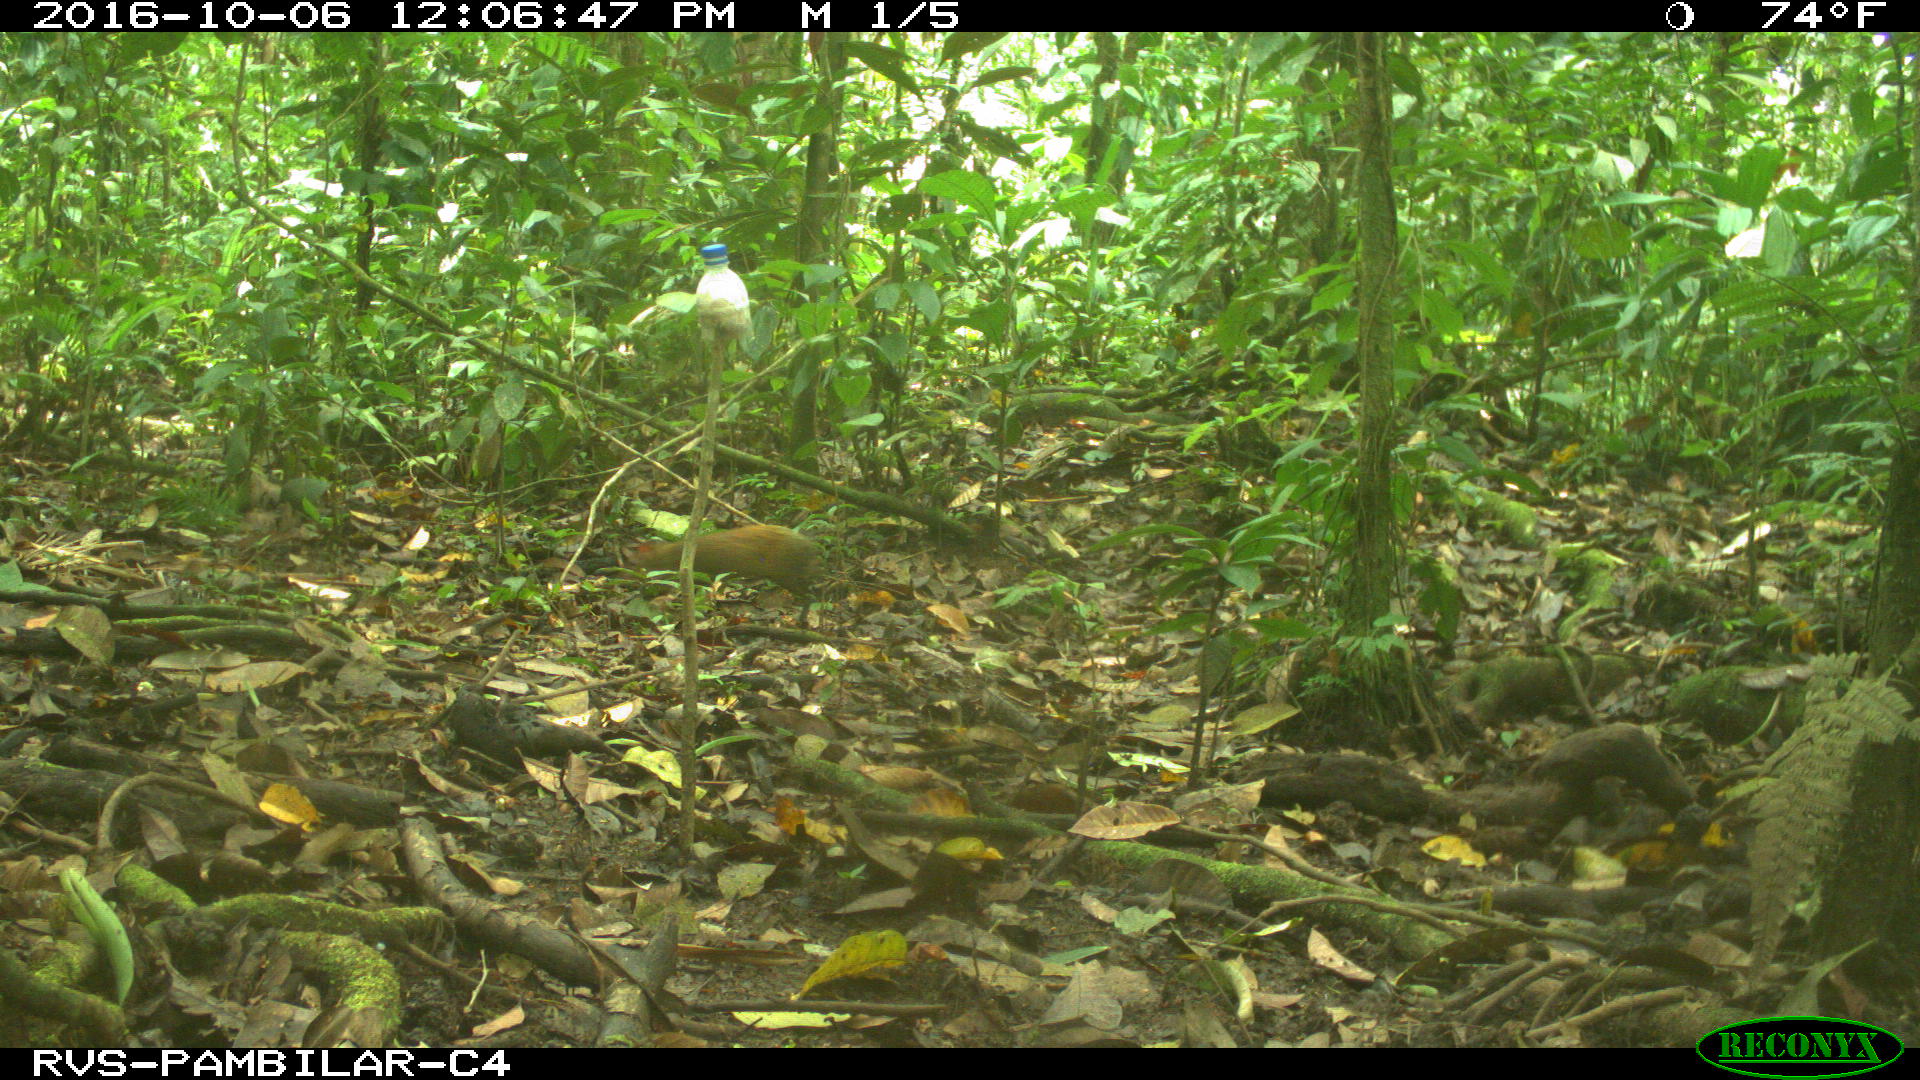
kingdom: Animalia
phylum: Chordata
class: Mammalia
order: Rodentia
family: Dasyproctidae
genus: Dasyprocta
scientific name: Dasyprocta punctata
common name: Central american agouti
